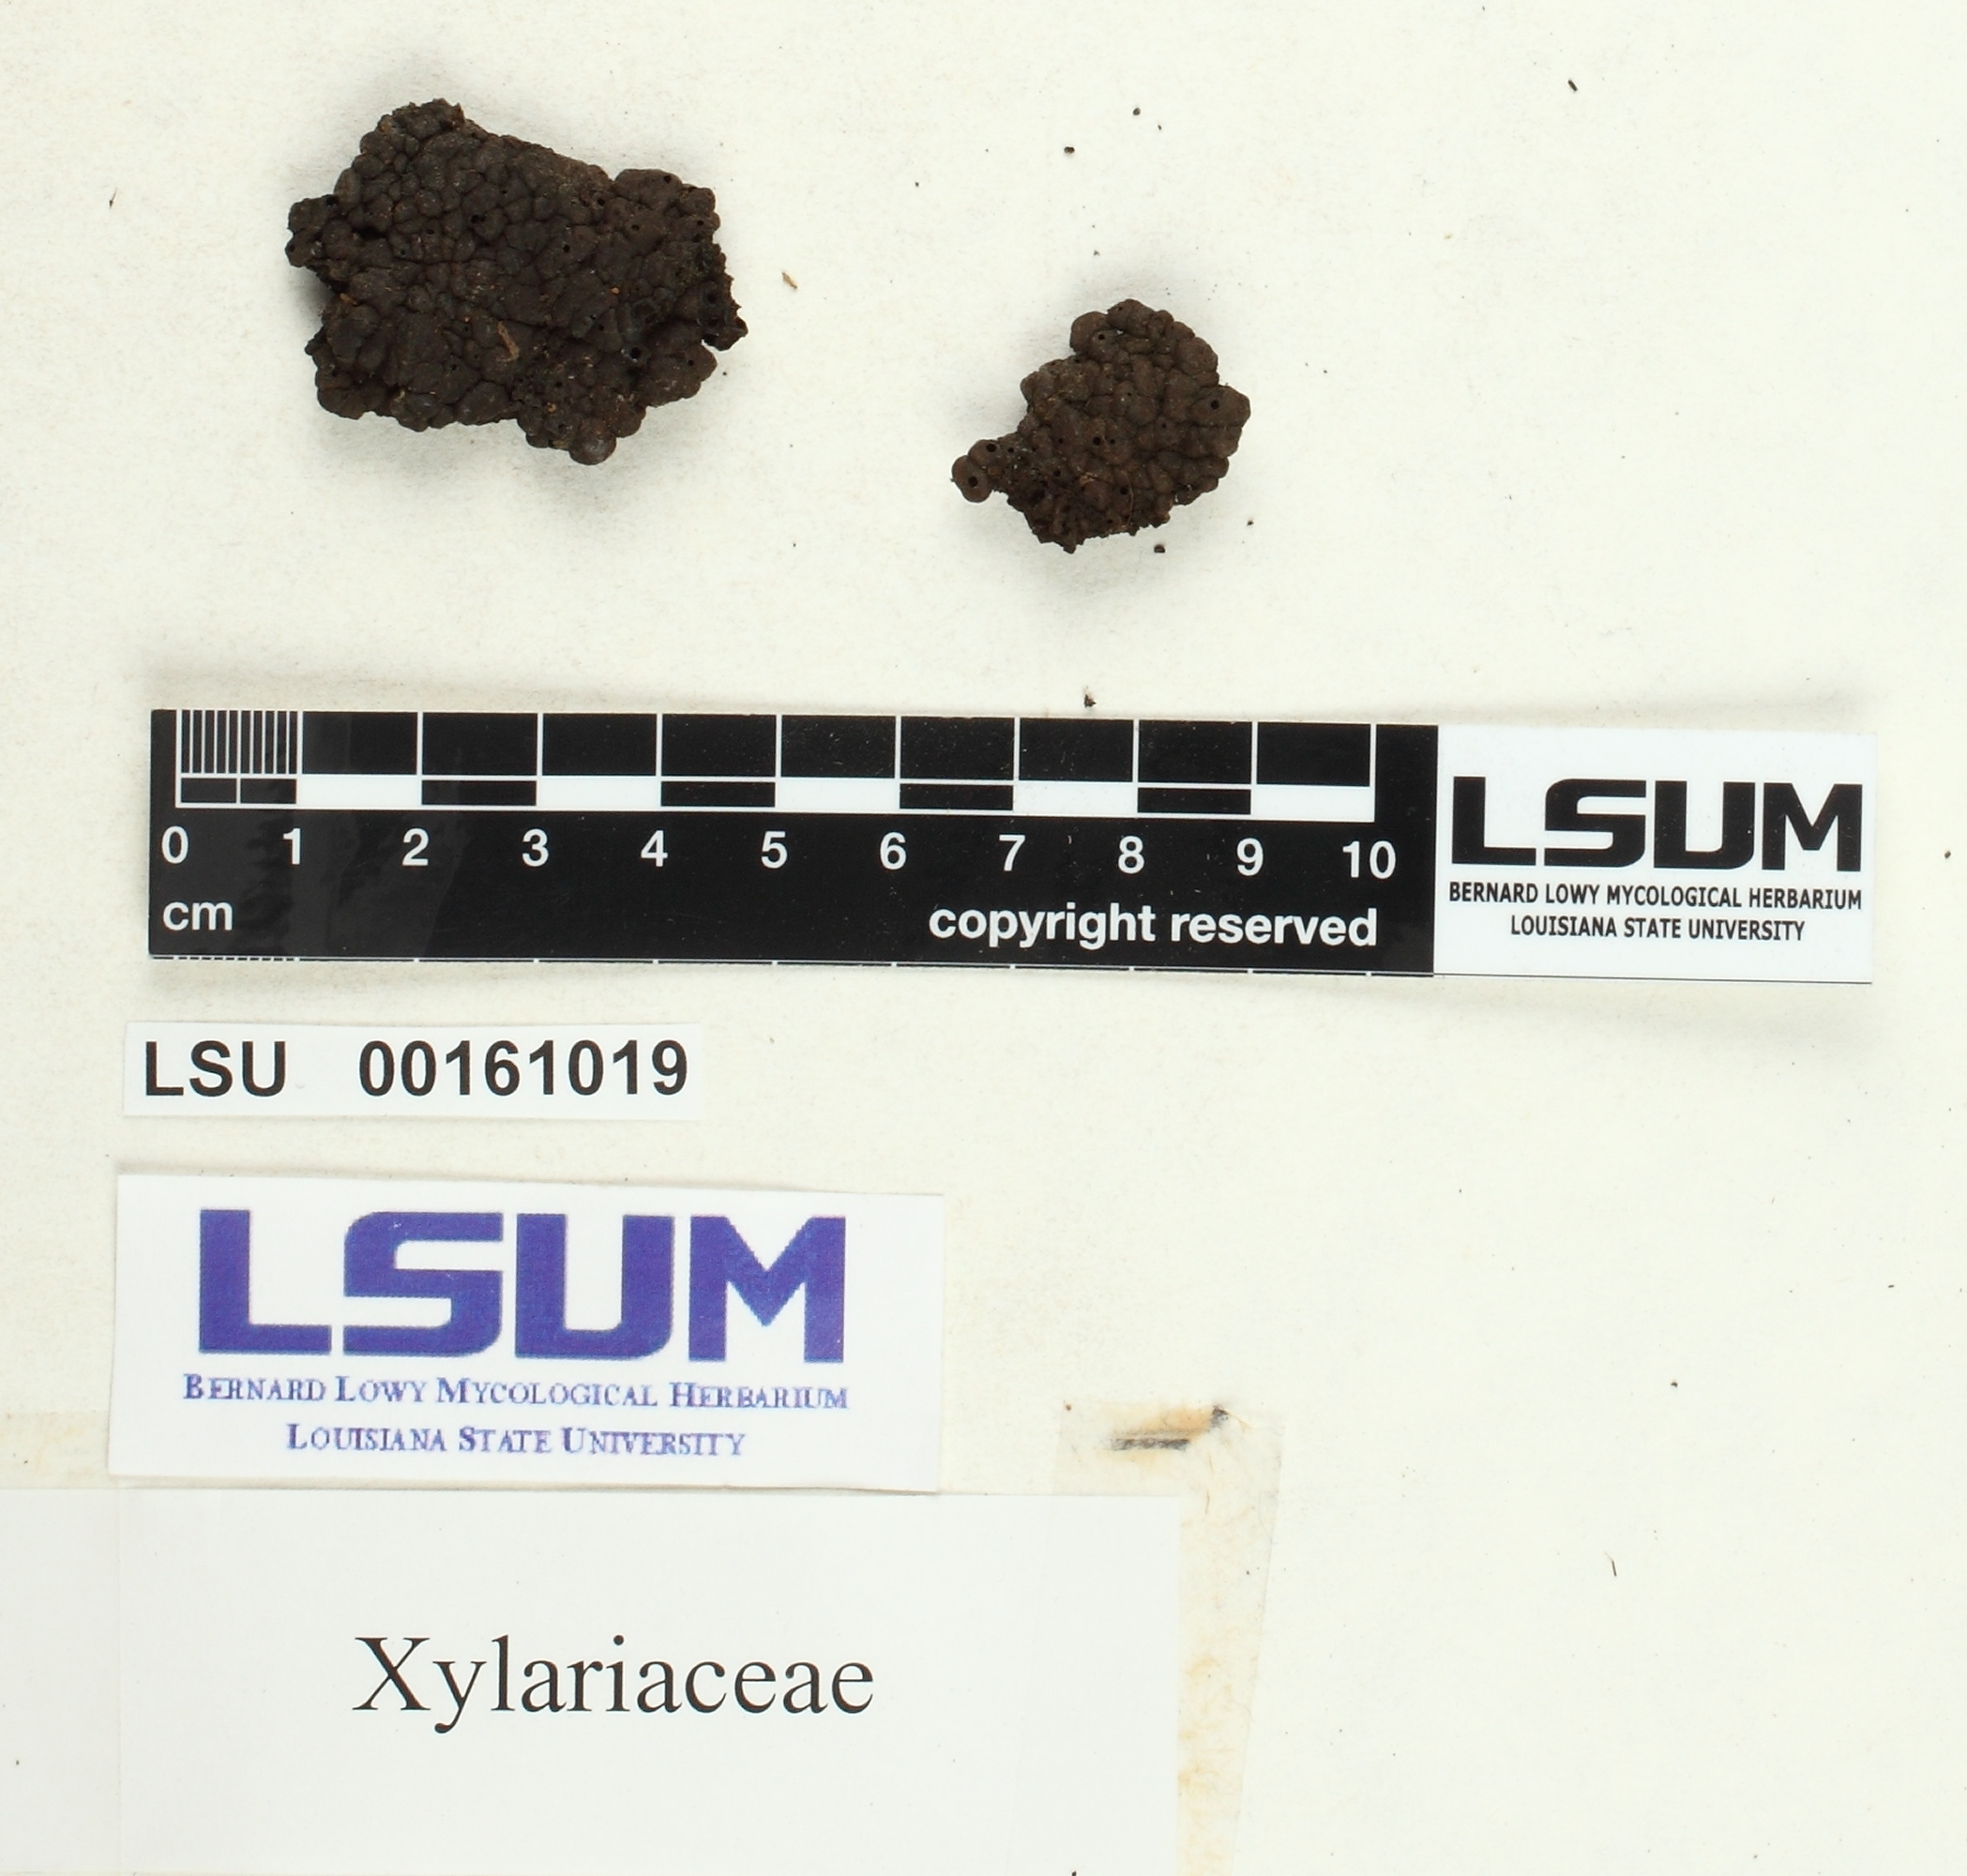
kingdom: Fungi
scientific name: Fungi
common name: Fungi
